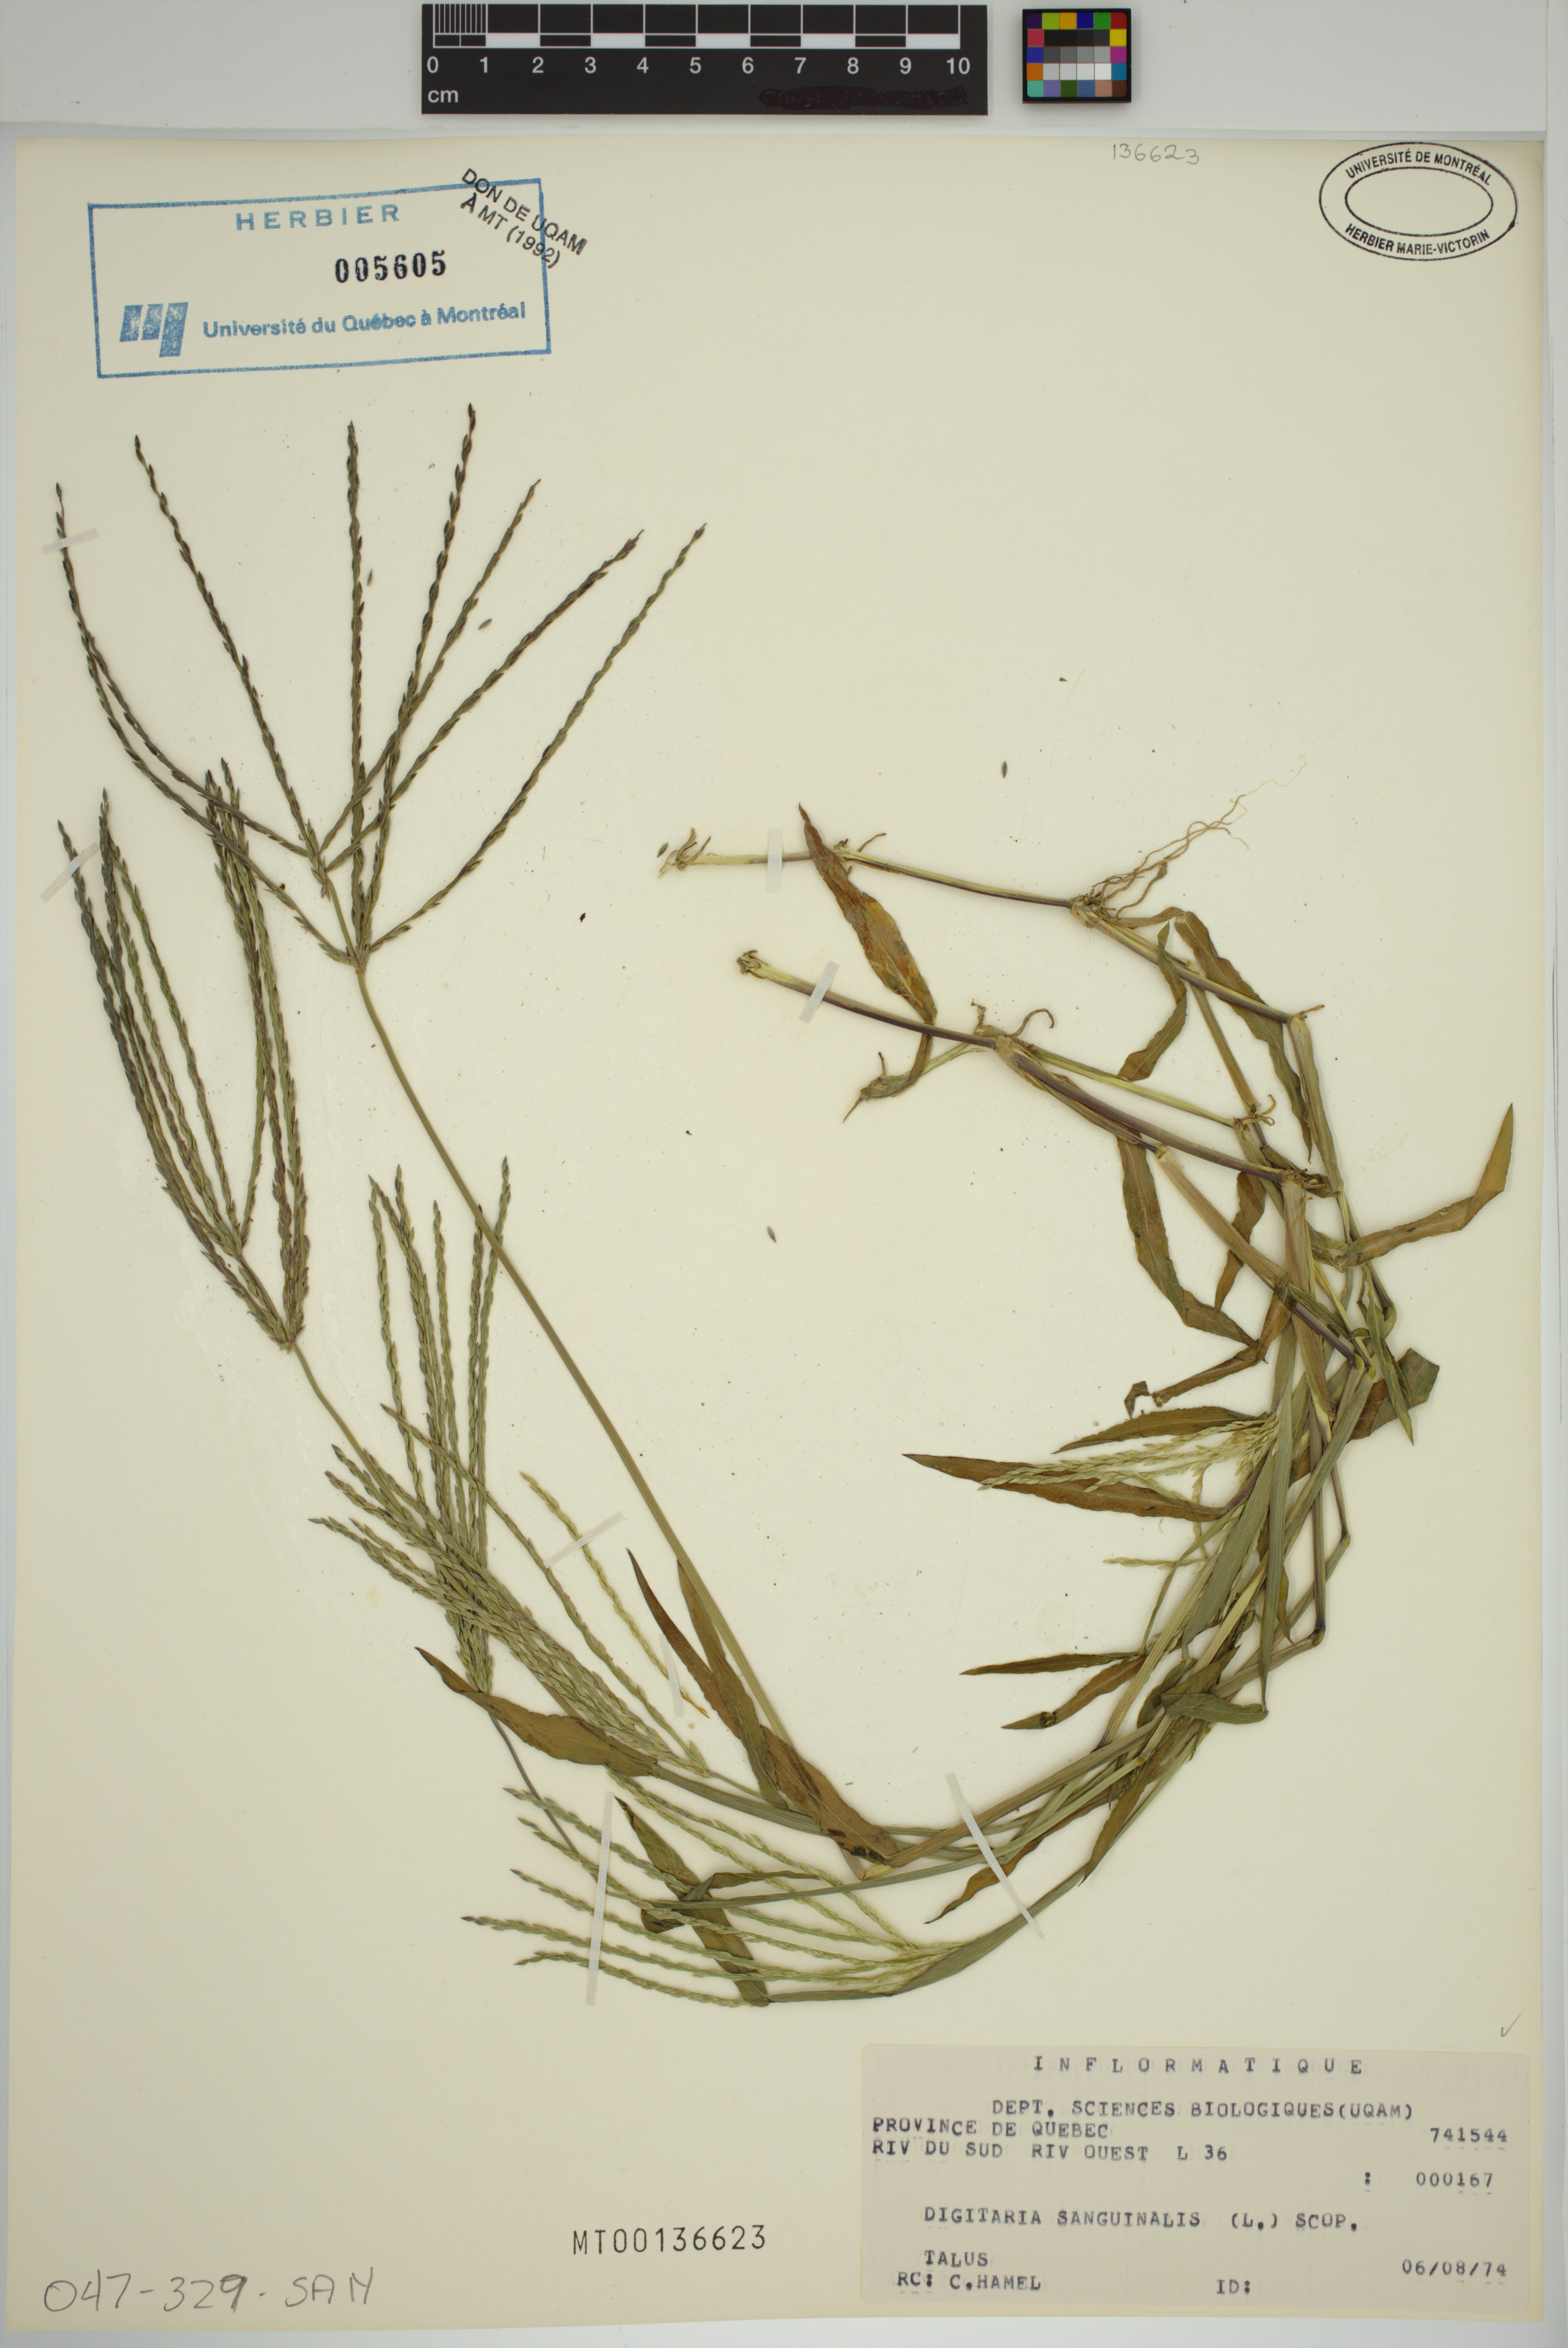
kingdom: Plantae
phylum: Tracheophyta
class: Liliopsida
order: Poales
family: Poaceae
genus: Digitaria
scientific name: Digitaria sanguinalis
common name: Hairy crabgrass
